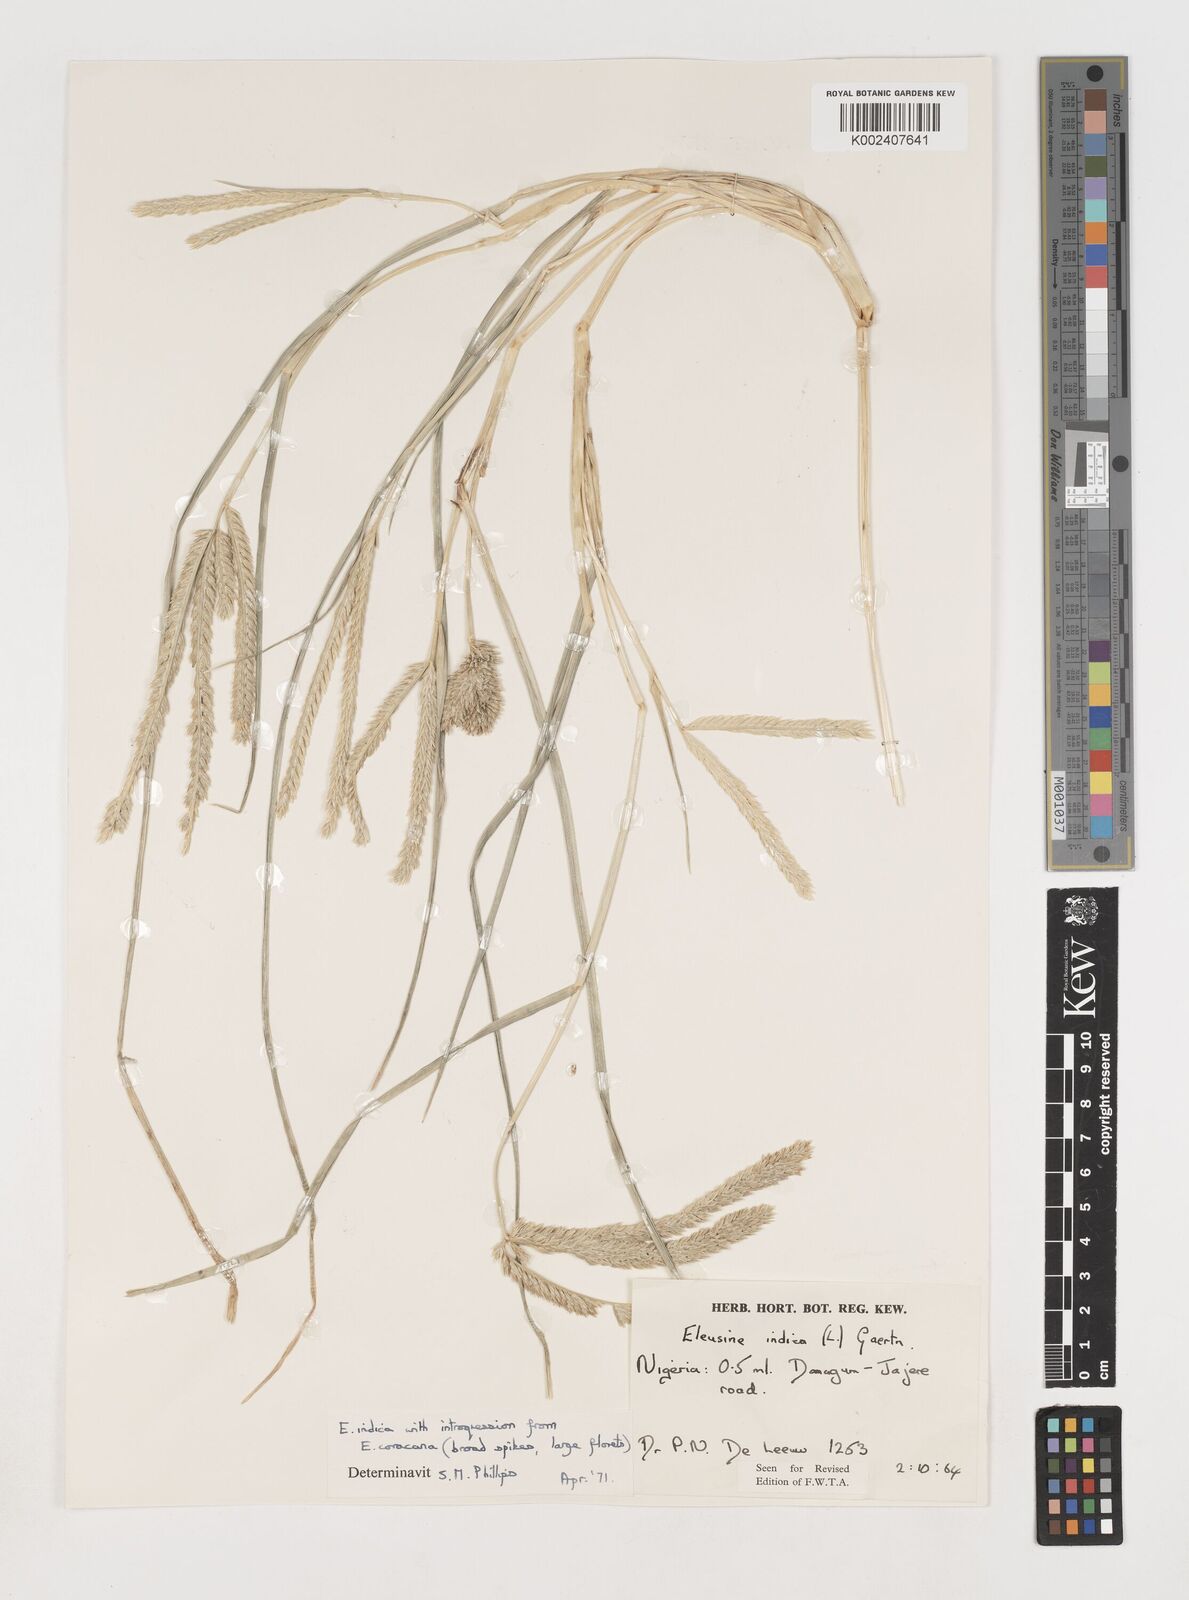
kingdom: Plantae
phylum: Tracheophyta
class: Liliopsida
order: Poales
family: Poaceae
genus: Eleusine
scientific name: Eleusine indica
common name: Yard-grass
